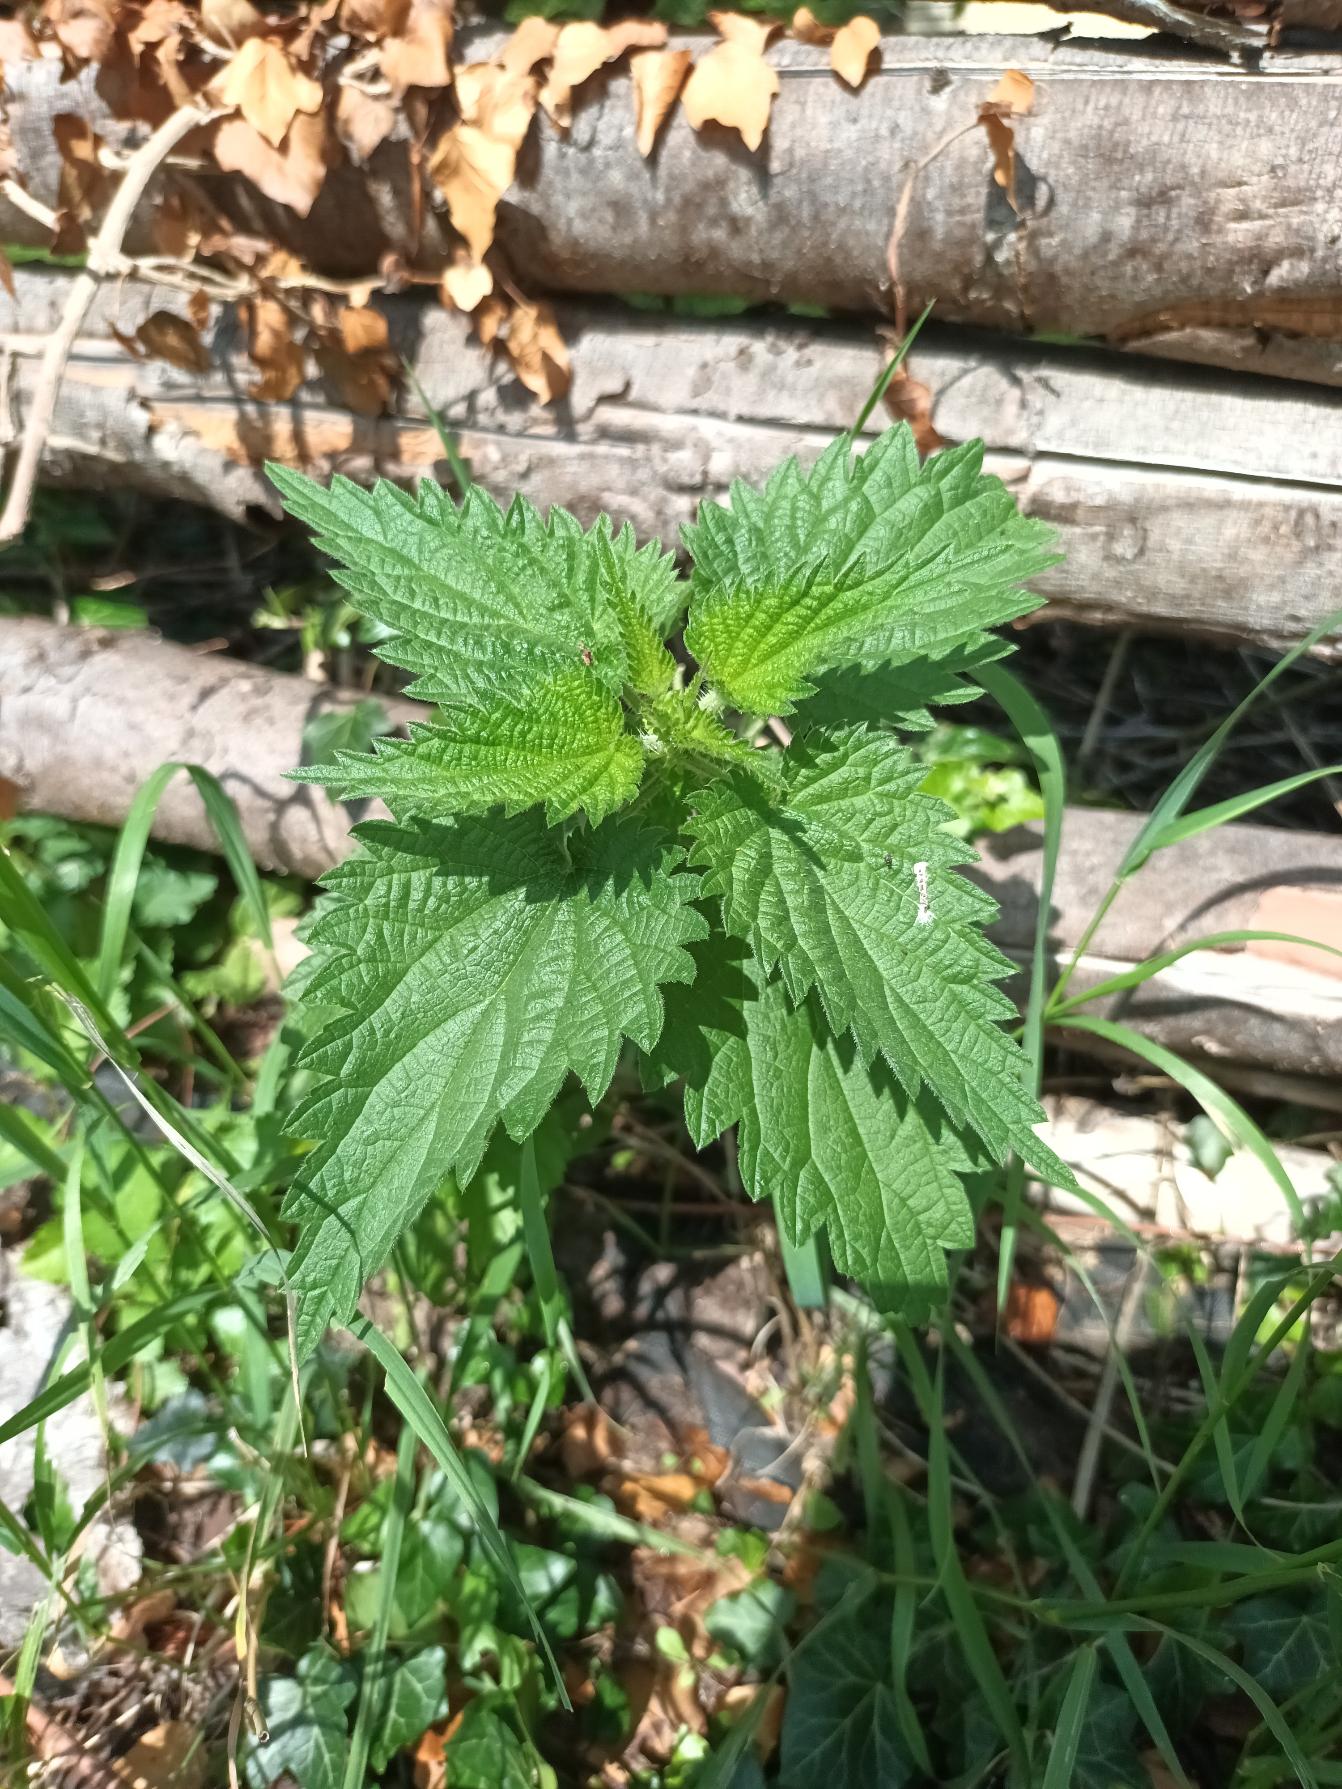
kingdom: Plantae
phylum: Tracheophyta
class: Magnoliopsida
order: Rosales
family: Urticaceae
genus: Urtica
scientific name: Urtica dioica
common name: Stor nælde
